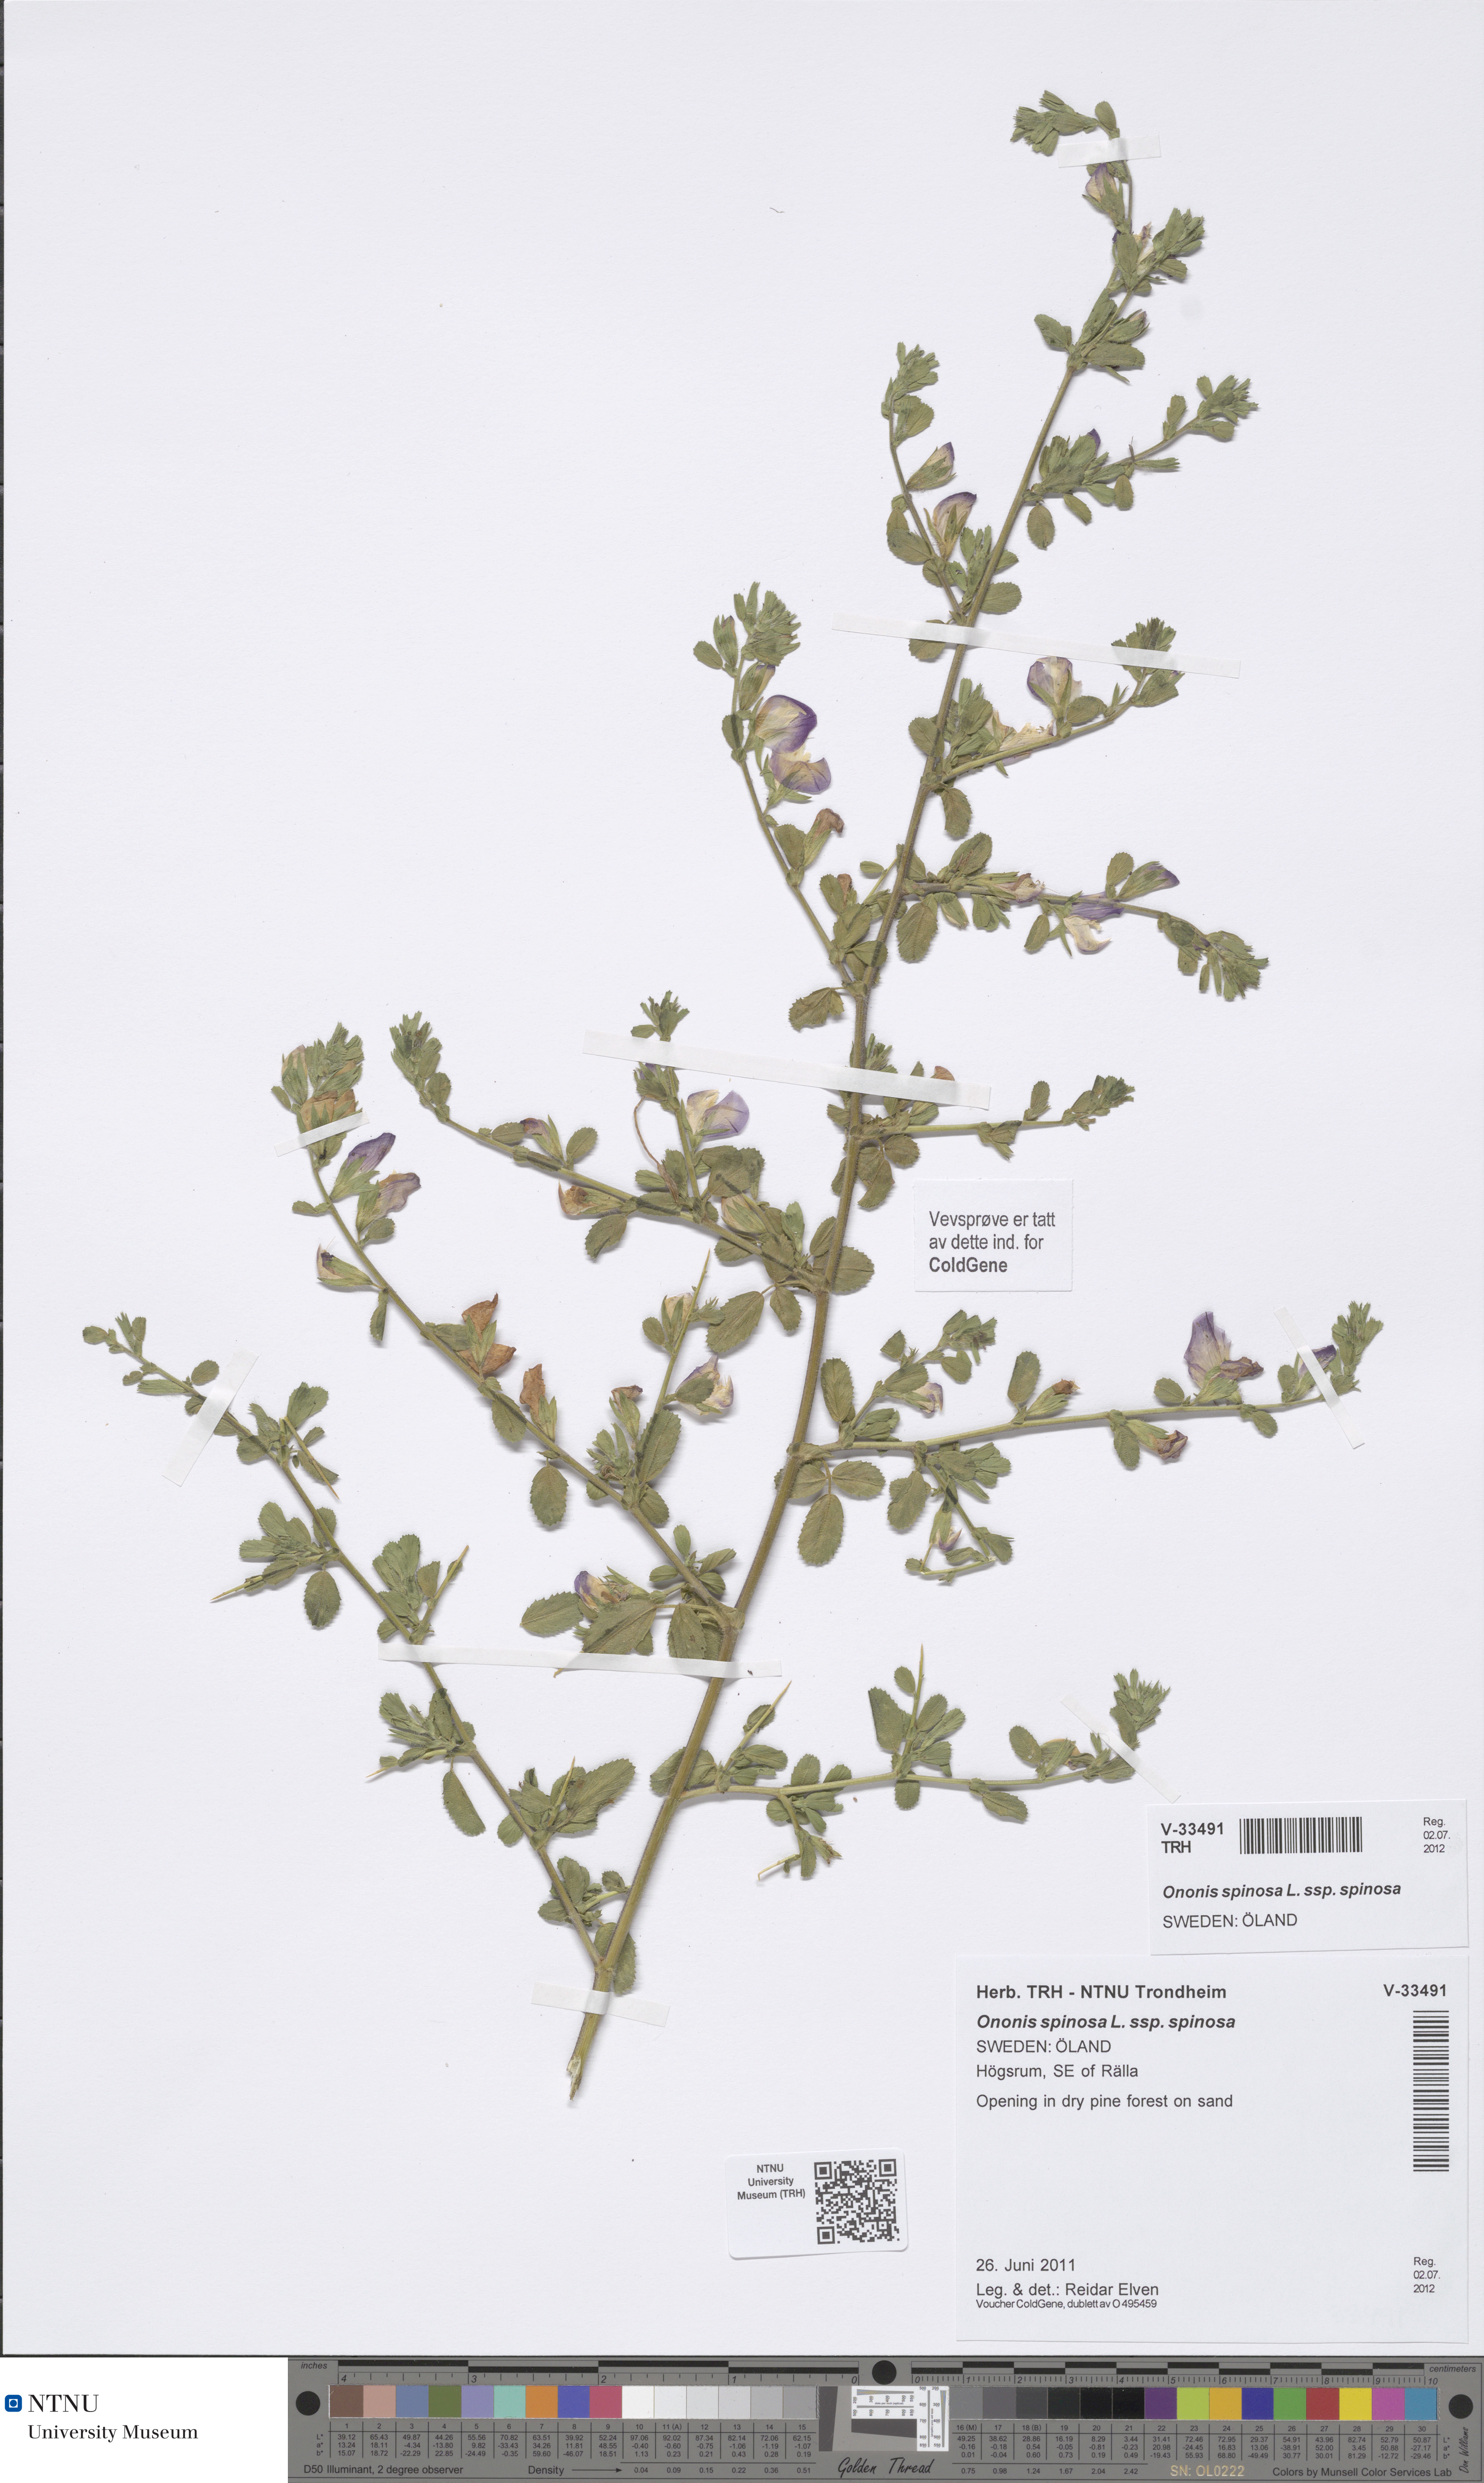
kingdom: Plantae
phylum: Tracheophyta
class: Magnoliopsida
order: Fabales
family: Fabaceae
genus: Ononis
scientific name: Ononis spinosa
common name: Spiny restharrow
